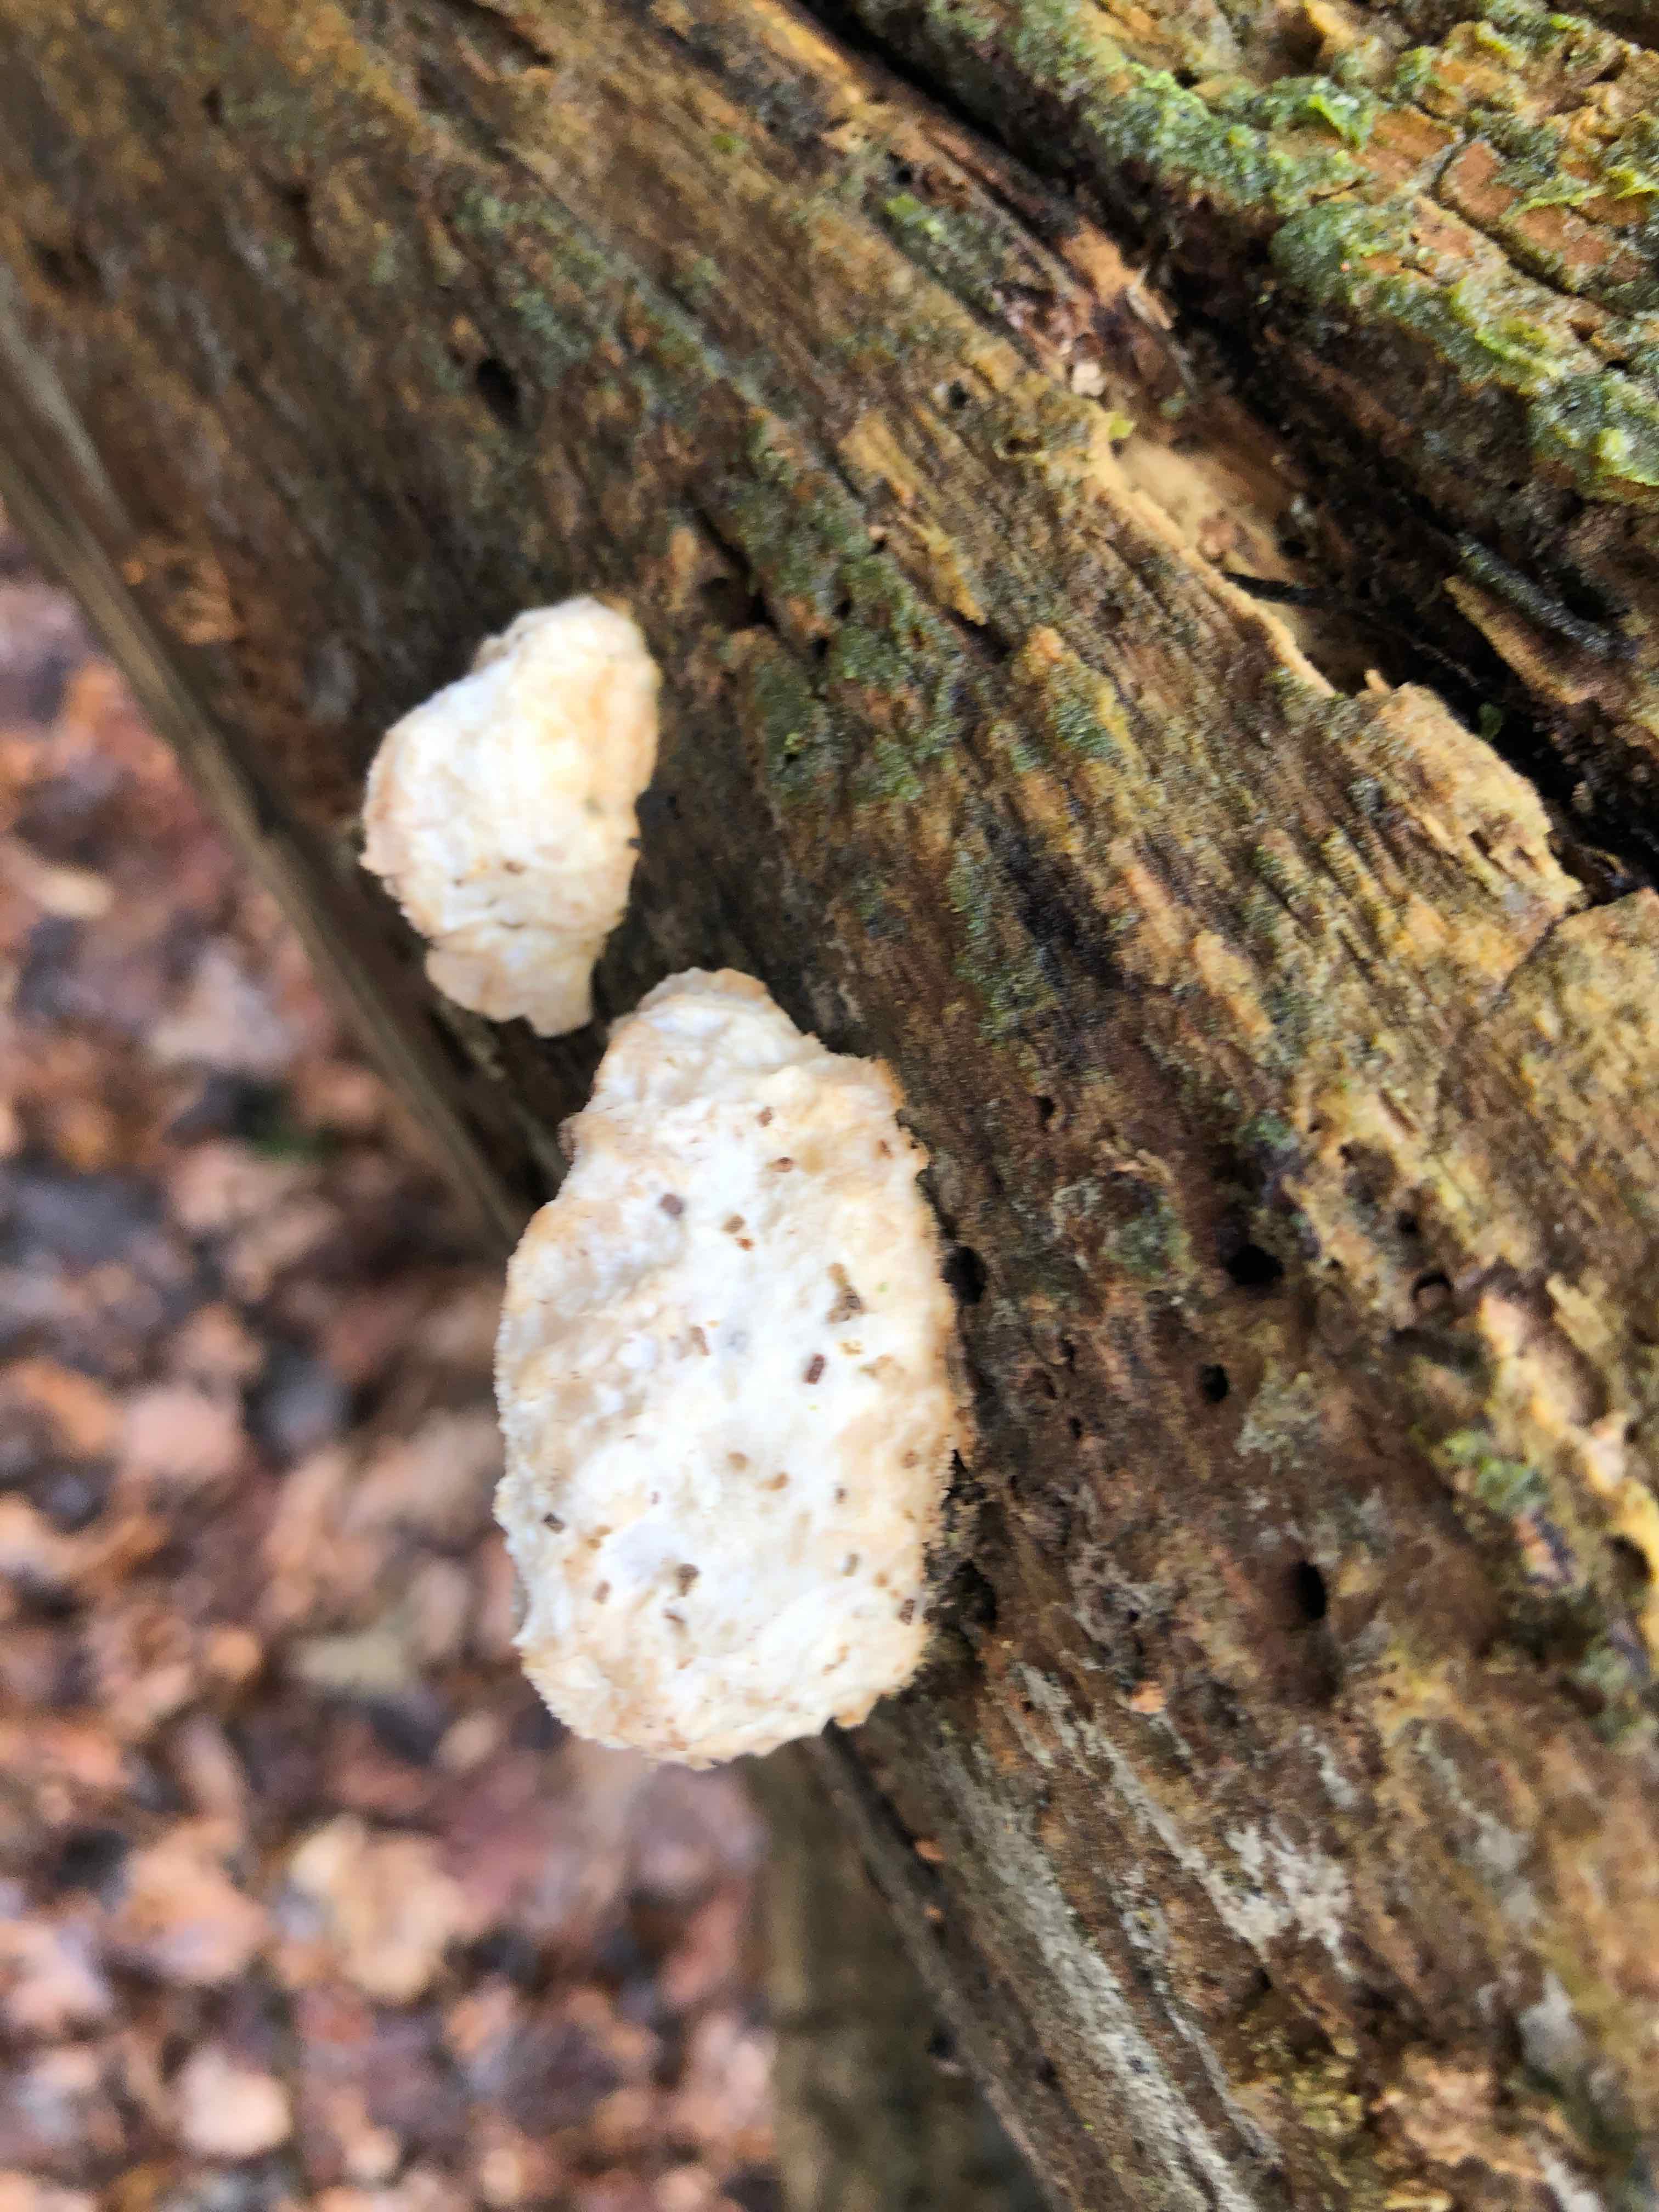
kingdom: Fungi
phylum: Basidiomycota
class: Agaricomycetes
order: Polyporales
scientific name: Polyporales
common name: poresvampordenen
